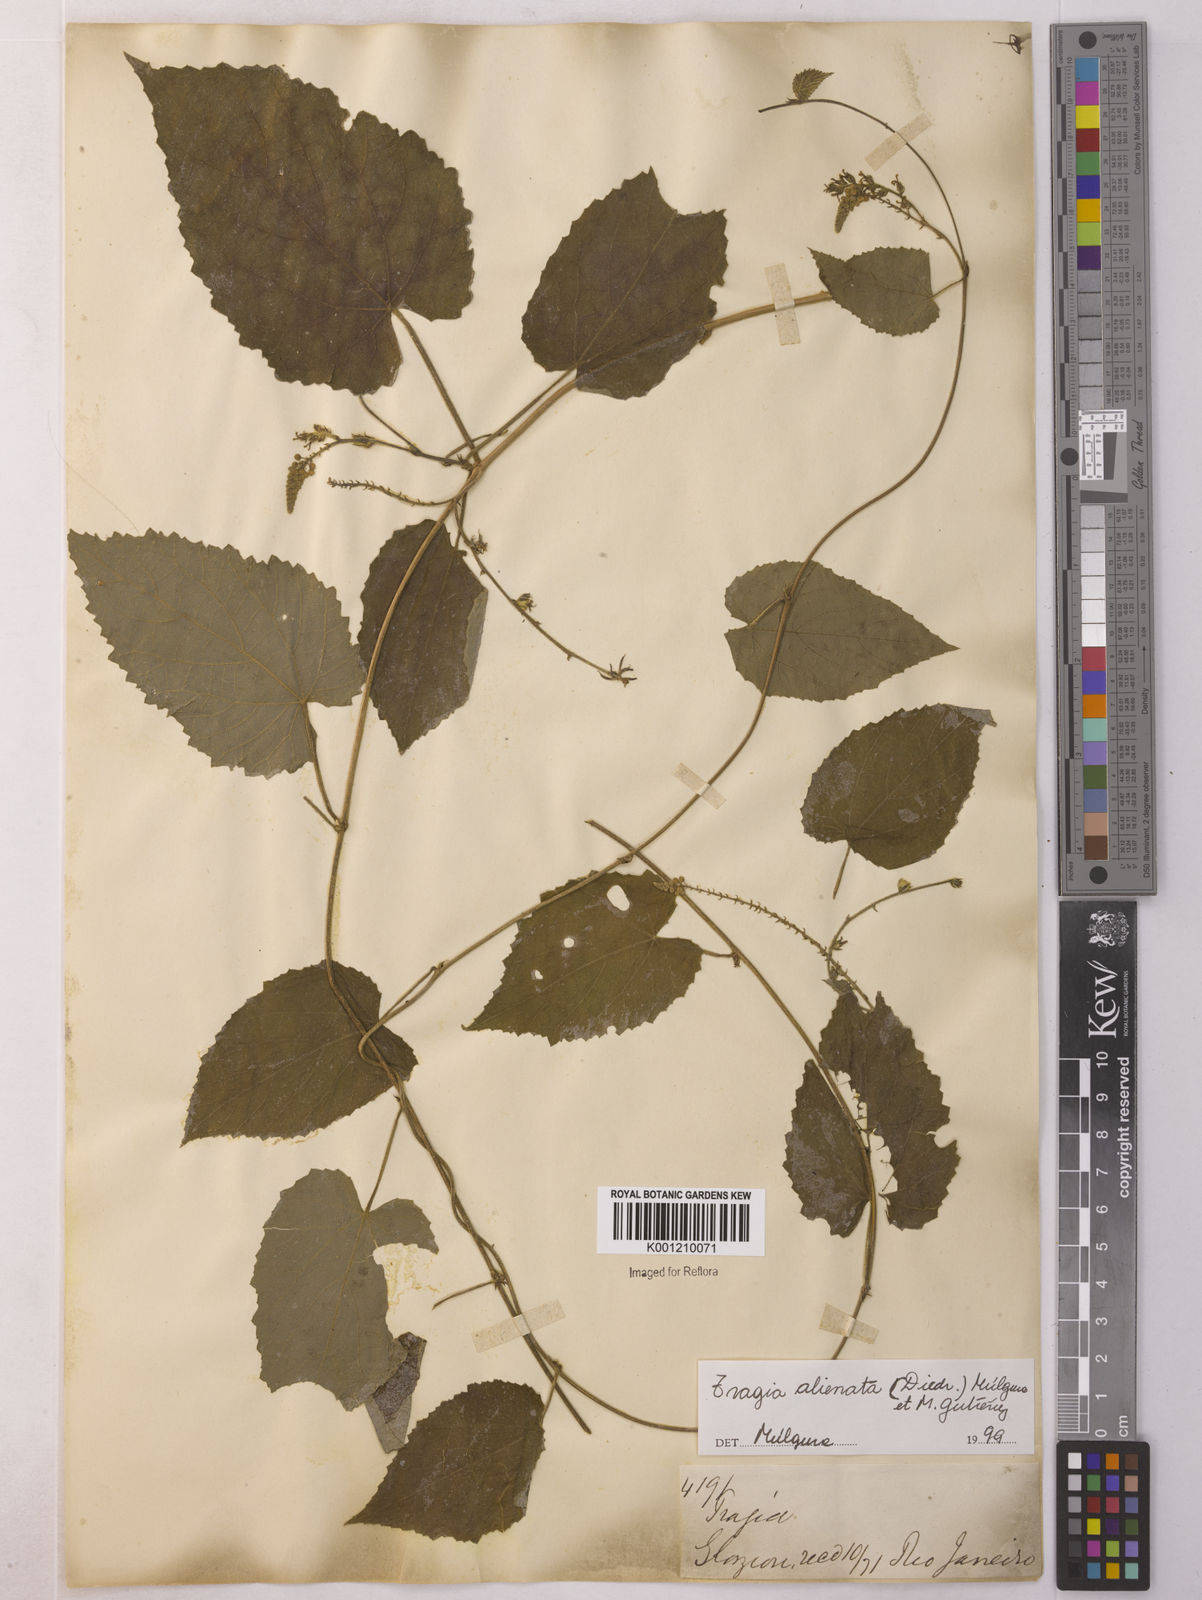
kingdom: Plantae
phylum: Tracheophyta
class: Magnoliopsida
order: Malpighiales
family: Euphorbiaceae
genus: Bia
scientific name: Bia alienata
